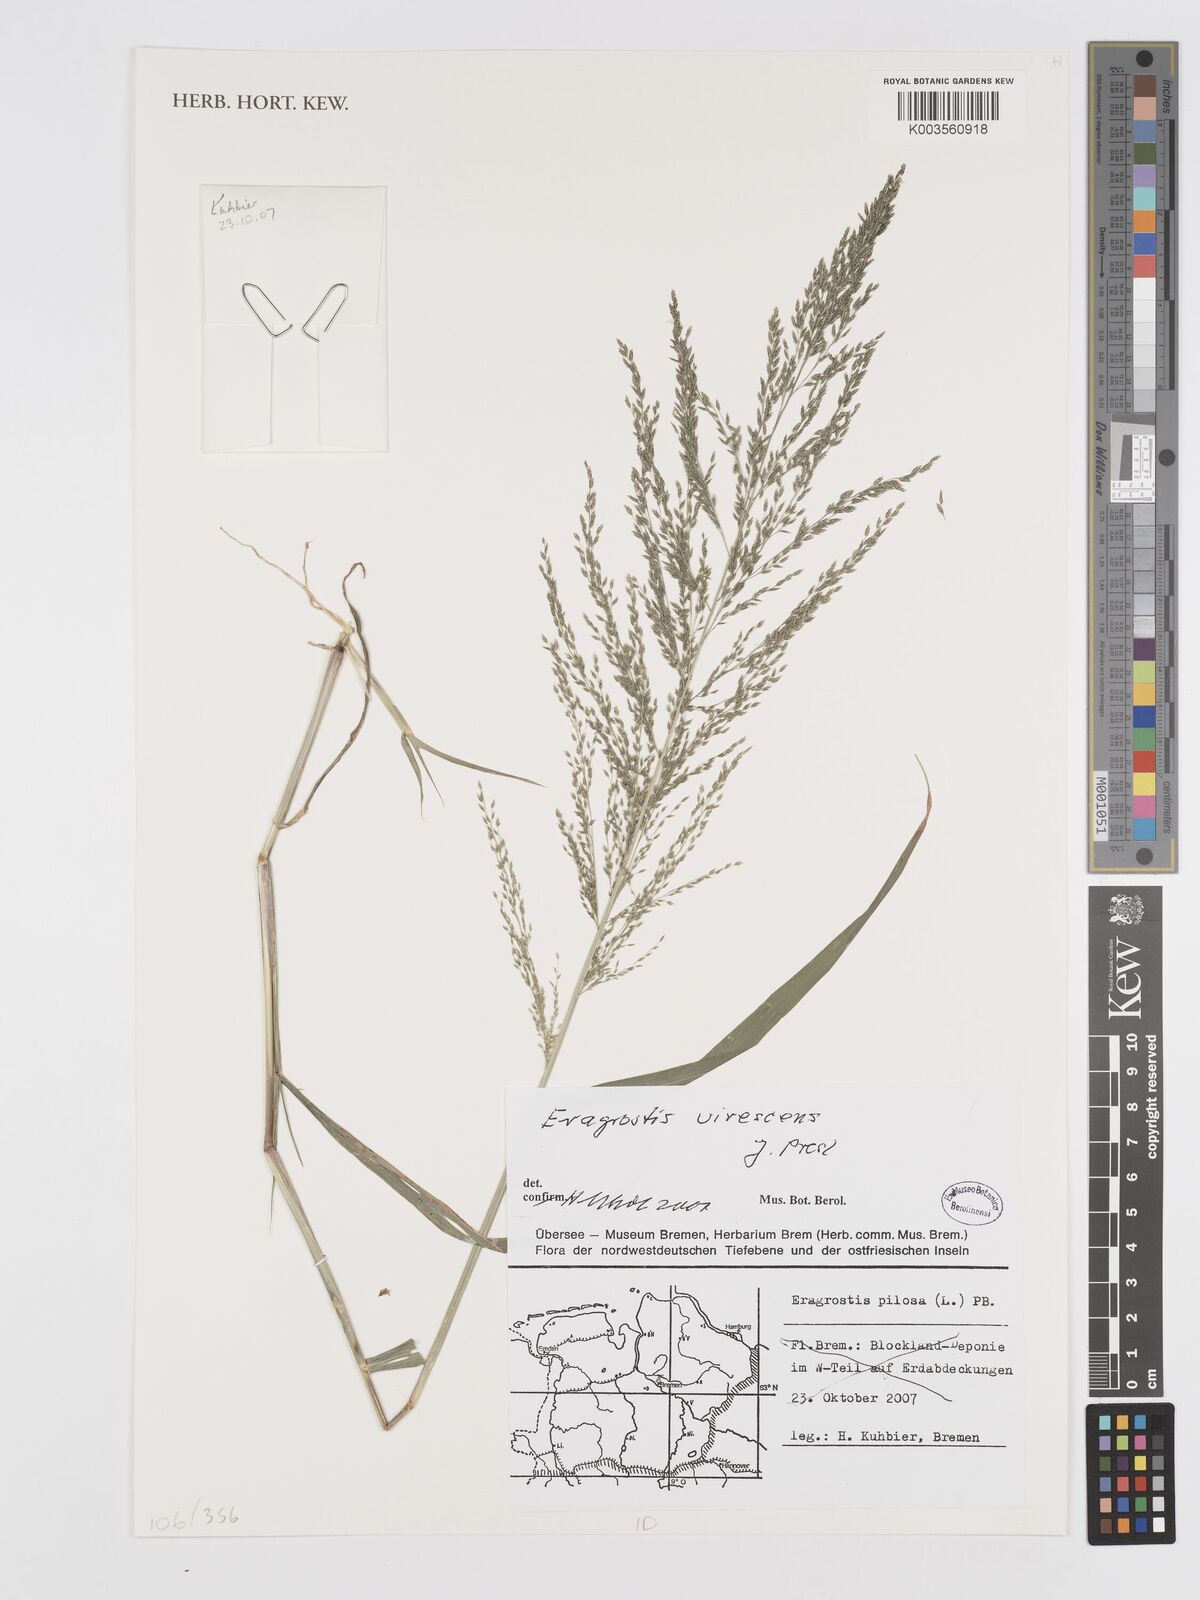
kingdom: Plantae
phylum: Tracheophyta
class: Liliopsida
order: Poales
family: Poaceae
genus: Eragrostis
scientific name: Eragrostis mexicana
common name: Mexican love grass
